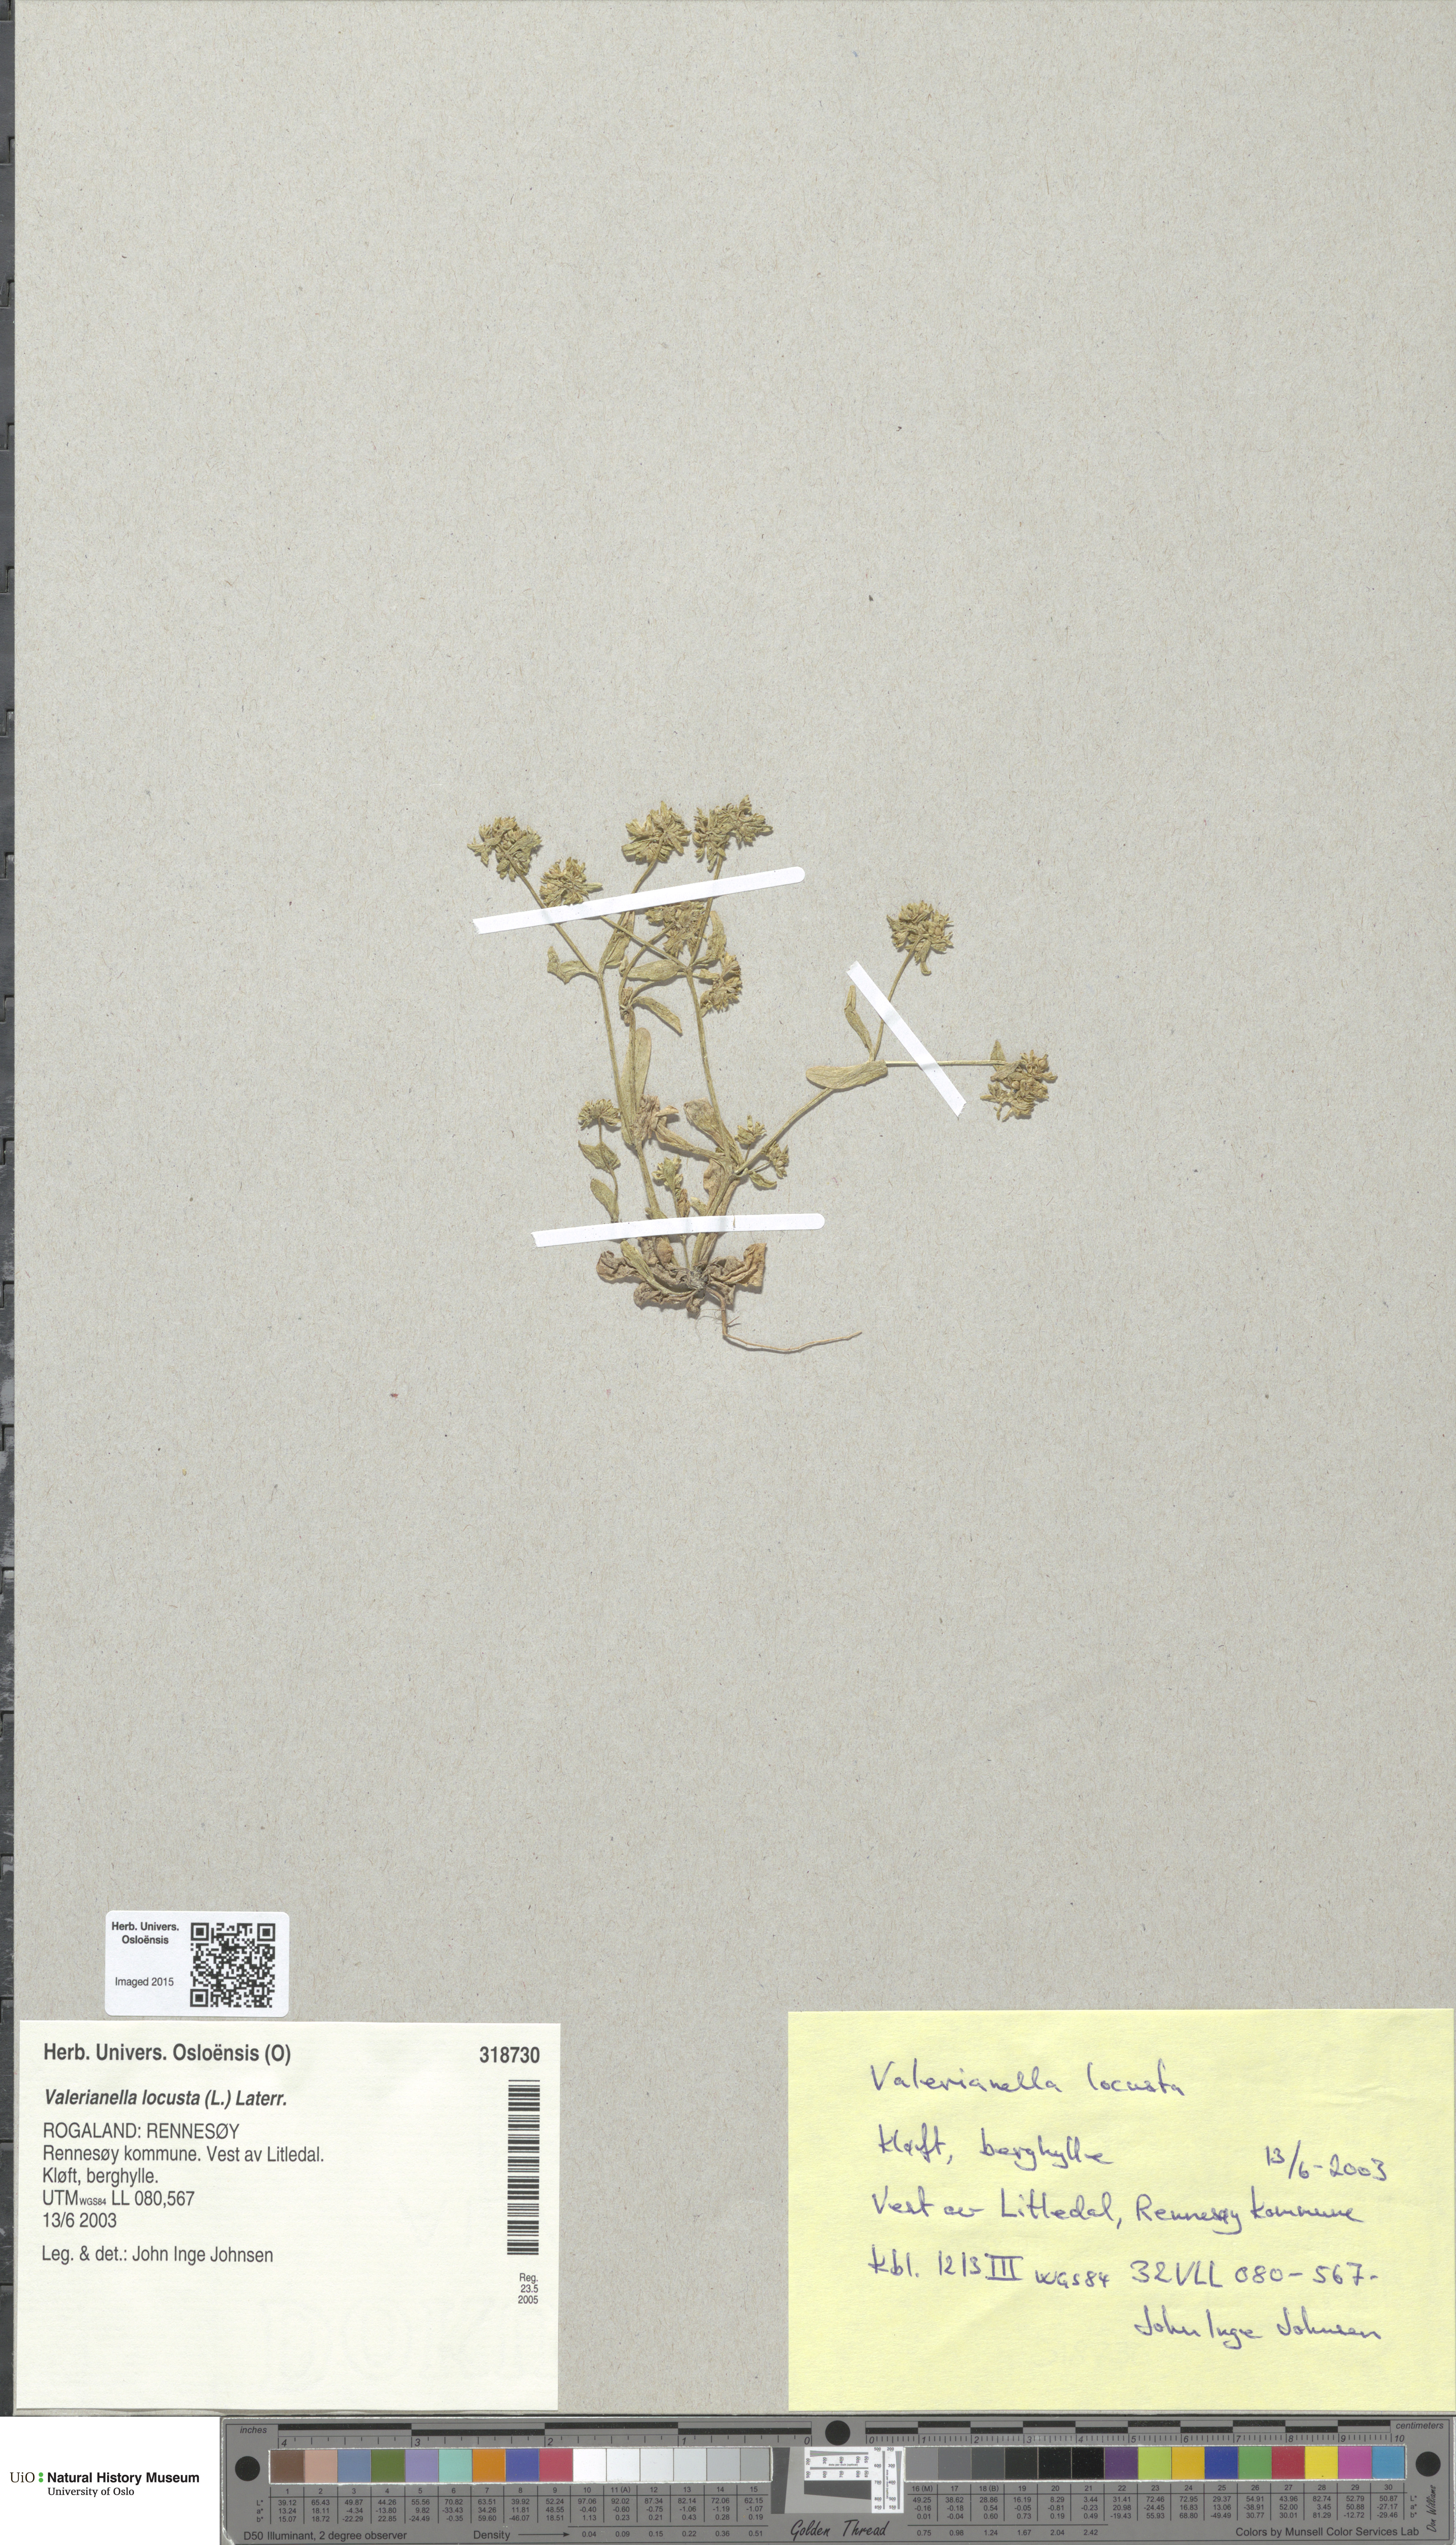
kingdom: Plantae
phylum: Tracheophyta
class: Magnoliopsida
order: Dipsacales
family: Caprifoliaceae
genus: Valerianella
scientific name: Valerianella locusta
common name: Common cornsalad
